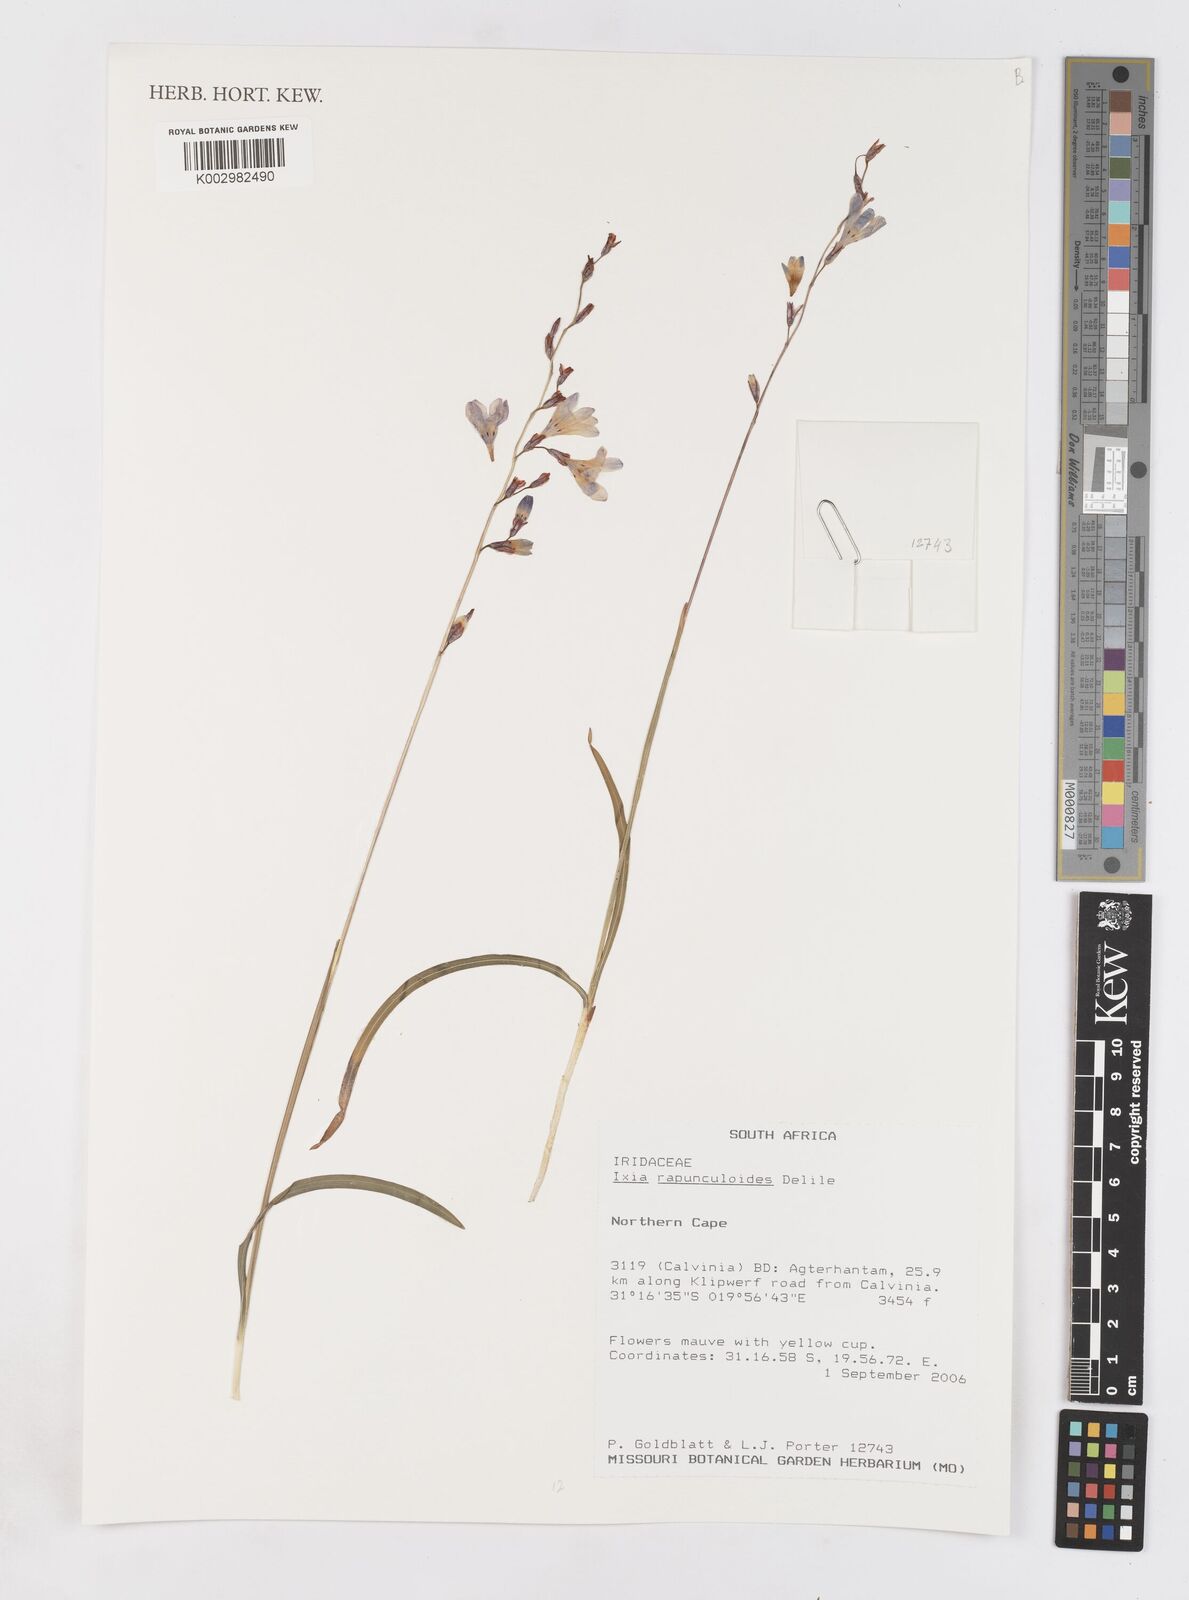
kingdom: Plantae
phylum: Tracheophyta
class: Liliopsida
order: Asparagales
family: Iridaceae
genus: Ixia
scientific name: Ixia rapunculoides
